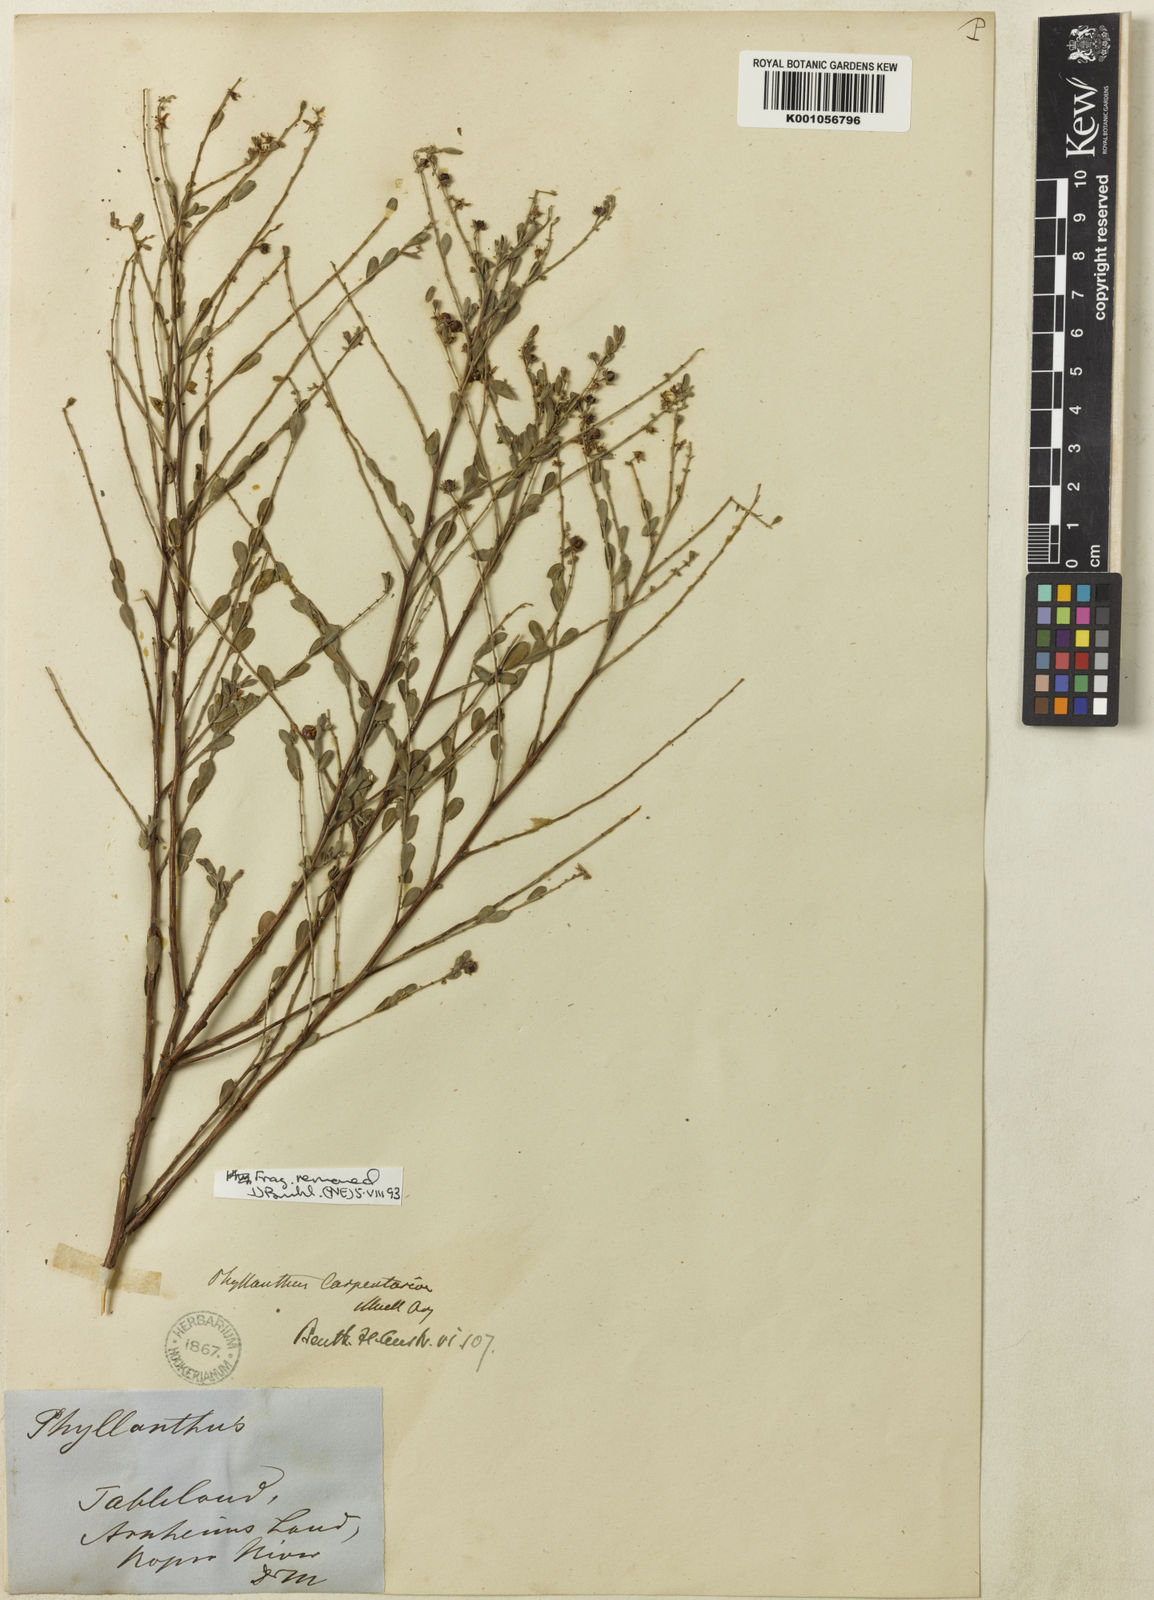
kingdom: Plantae
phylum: Tracheophyta
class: Magnoliopsida
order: Malpighiales
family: Phyllanthaceae
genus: Phyllanthus
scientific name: Phyllanthus
